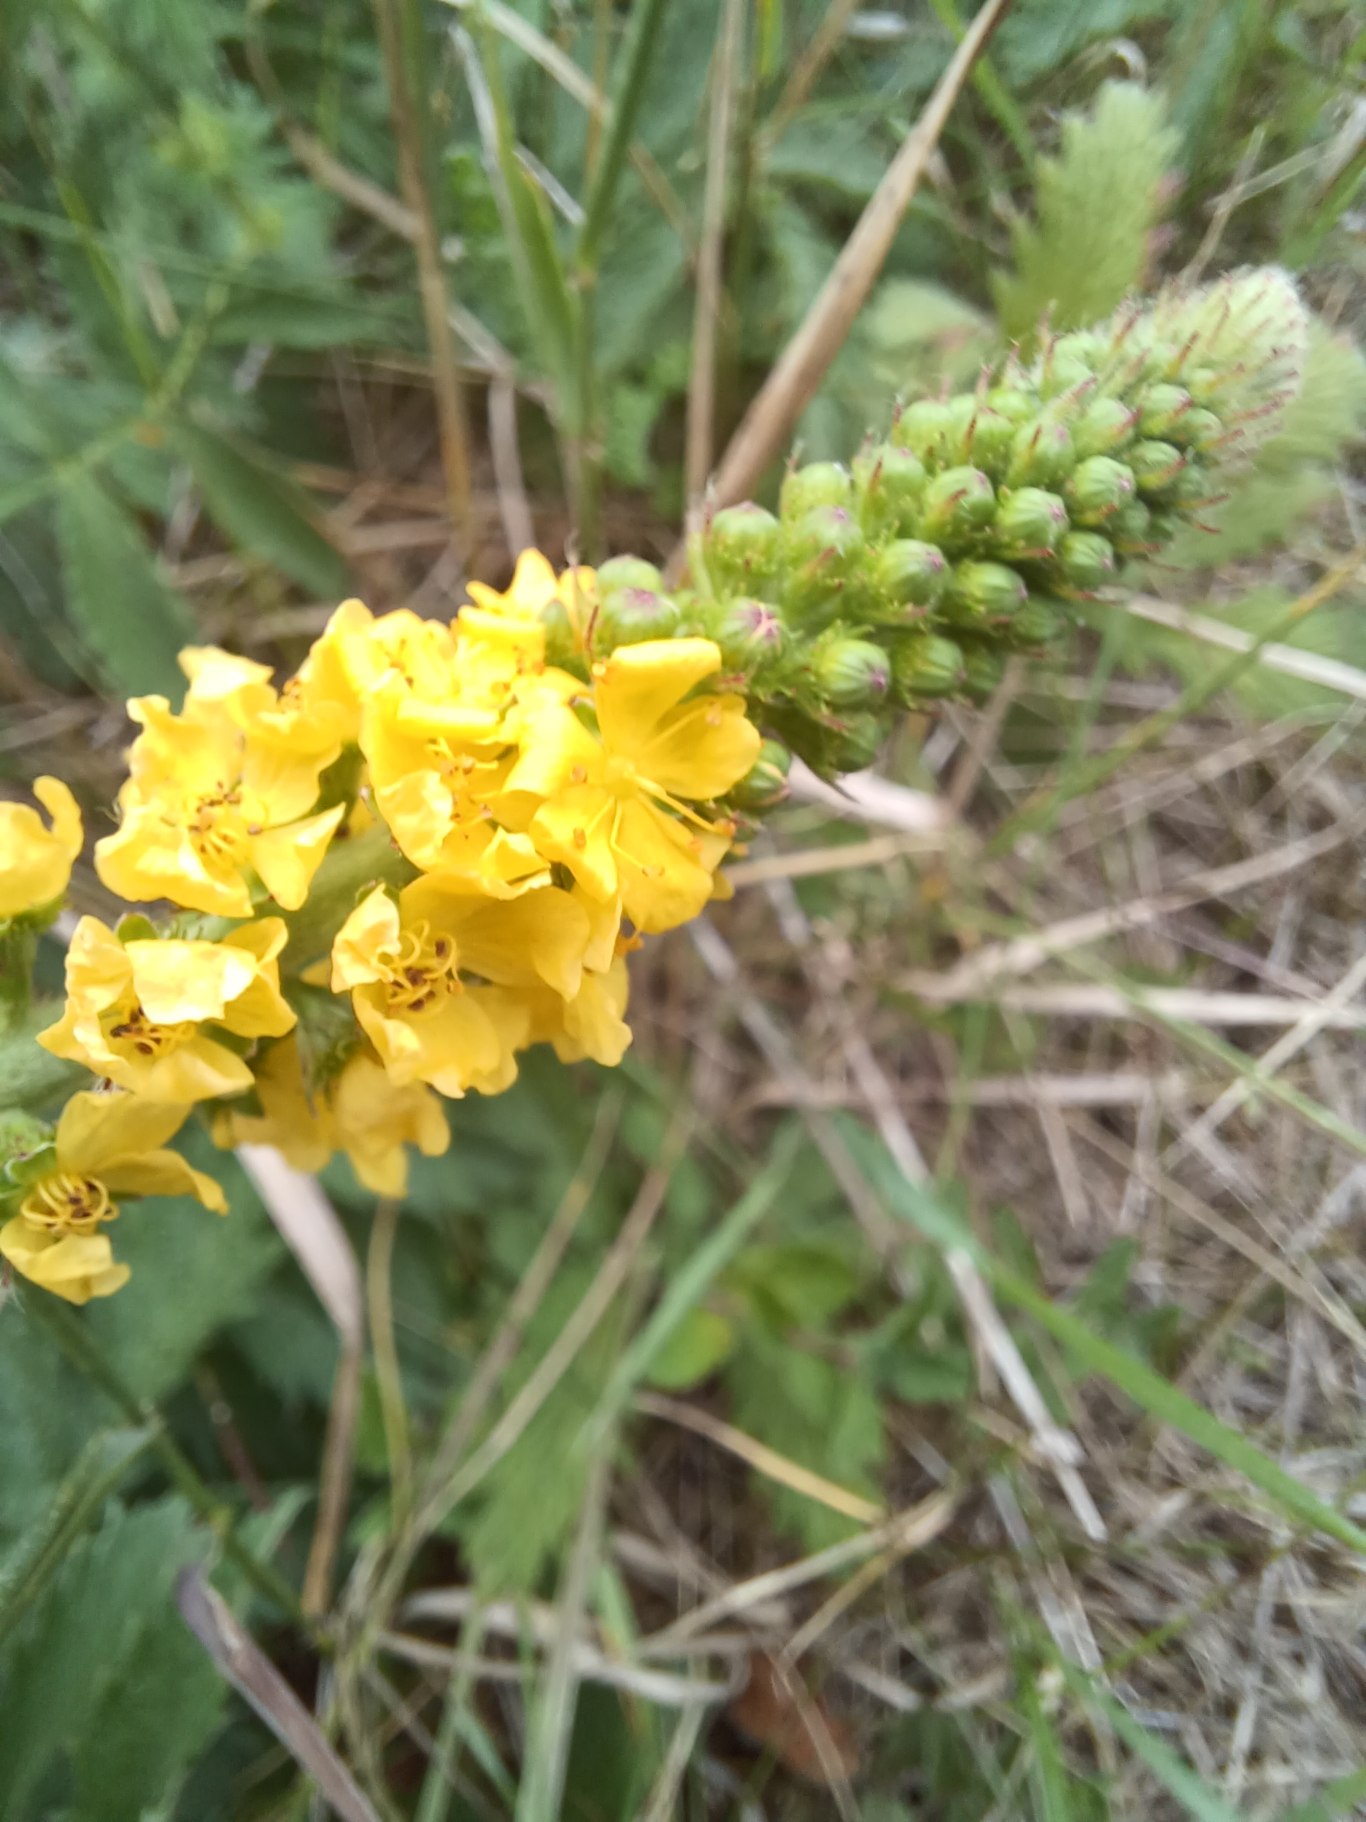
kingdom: Plantae
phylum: Tracheophyta
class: Magnoliopsida
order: Rosales
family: Rosaceae
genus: Agrimonia
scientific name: Agrimonia eupatoria
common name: Almindelig agermåne
